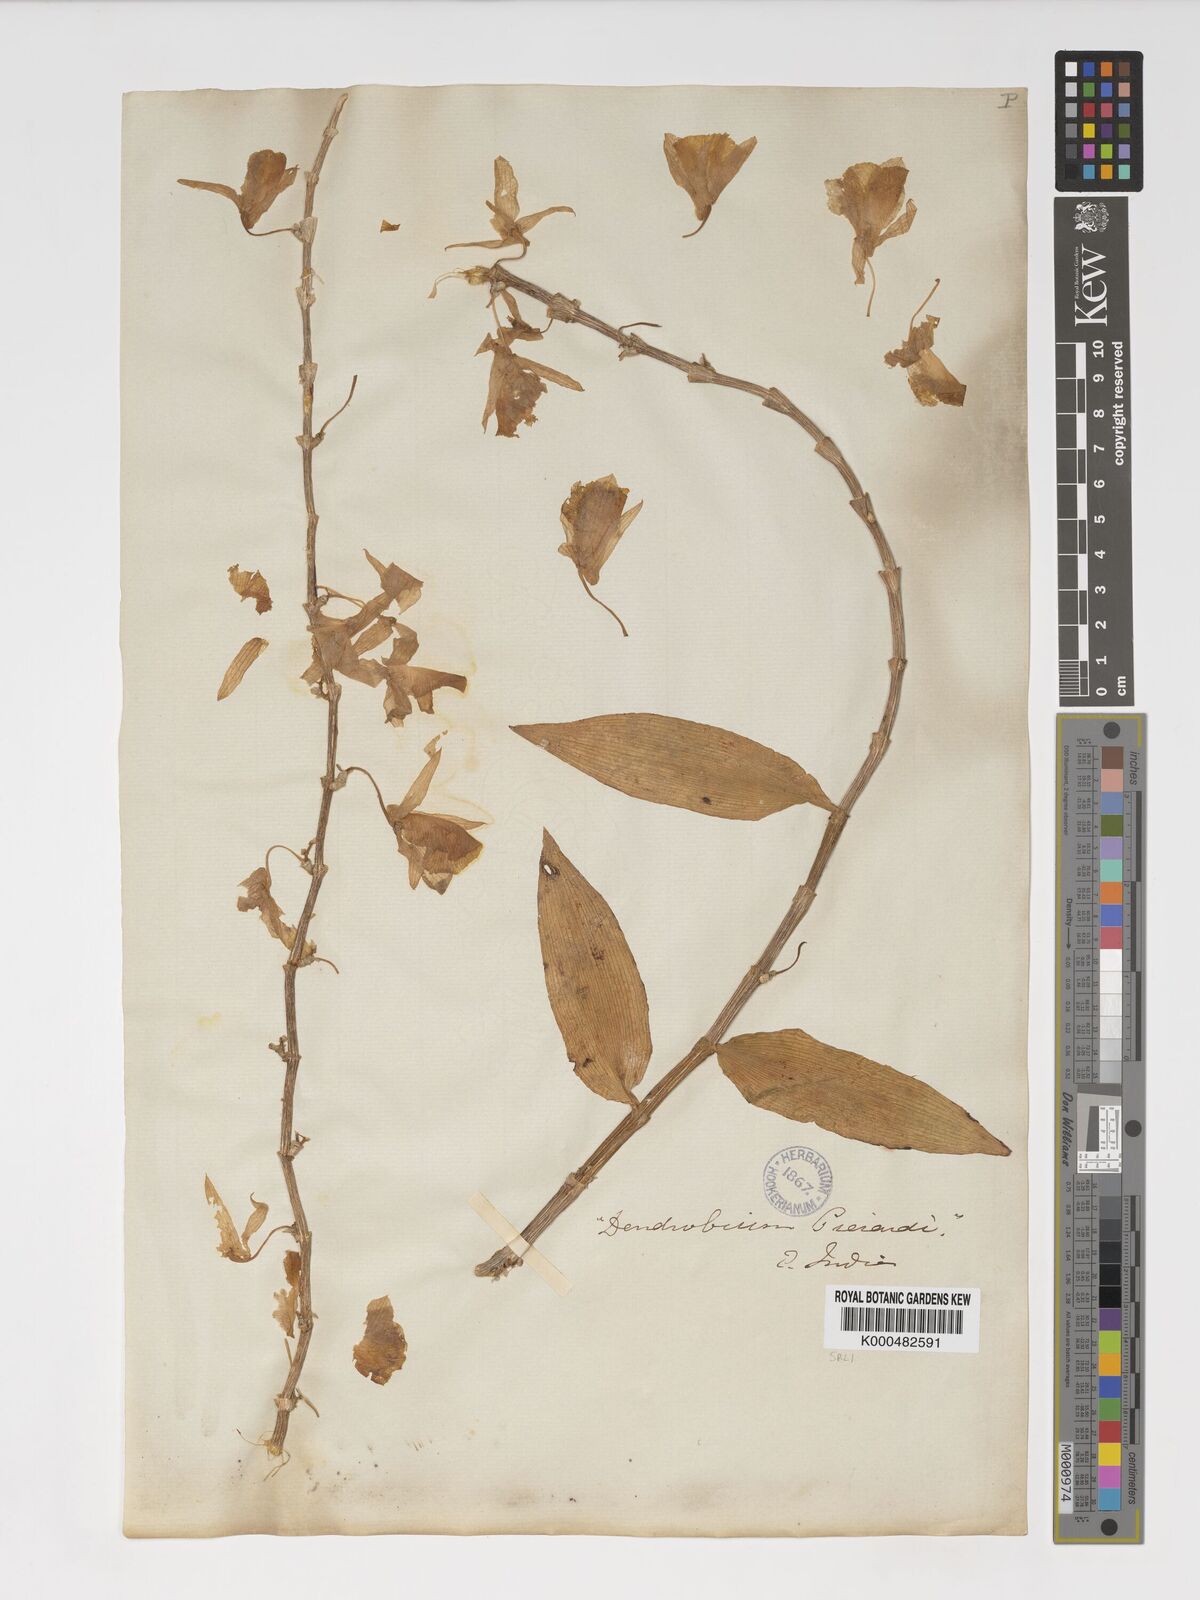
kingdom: Plantae
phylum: Tracheophyta
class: Liliopsida
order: Asparagales
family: Orchidaceae
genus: Dendrobium
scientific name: Dendrobium macrostachyum
